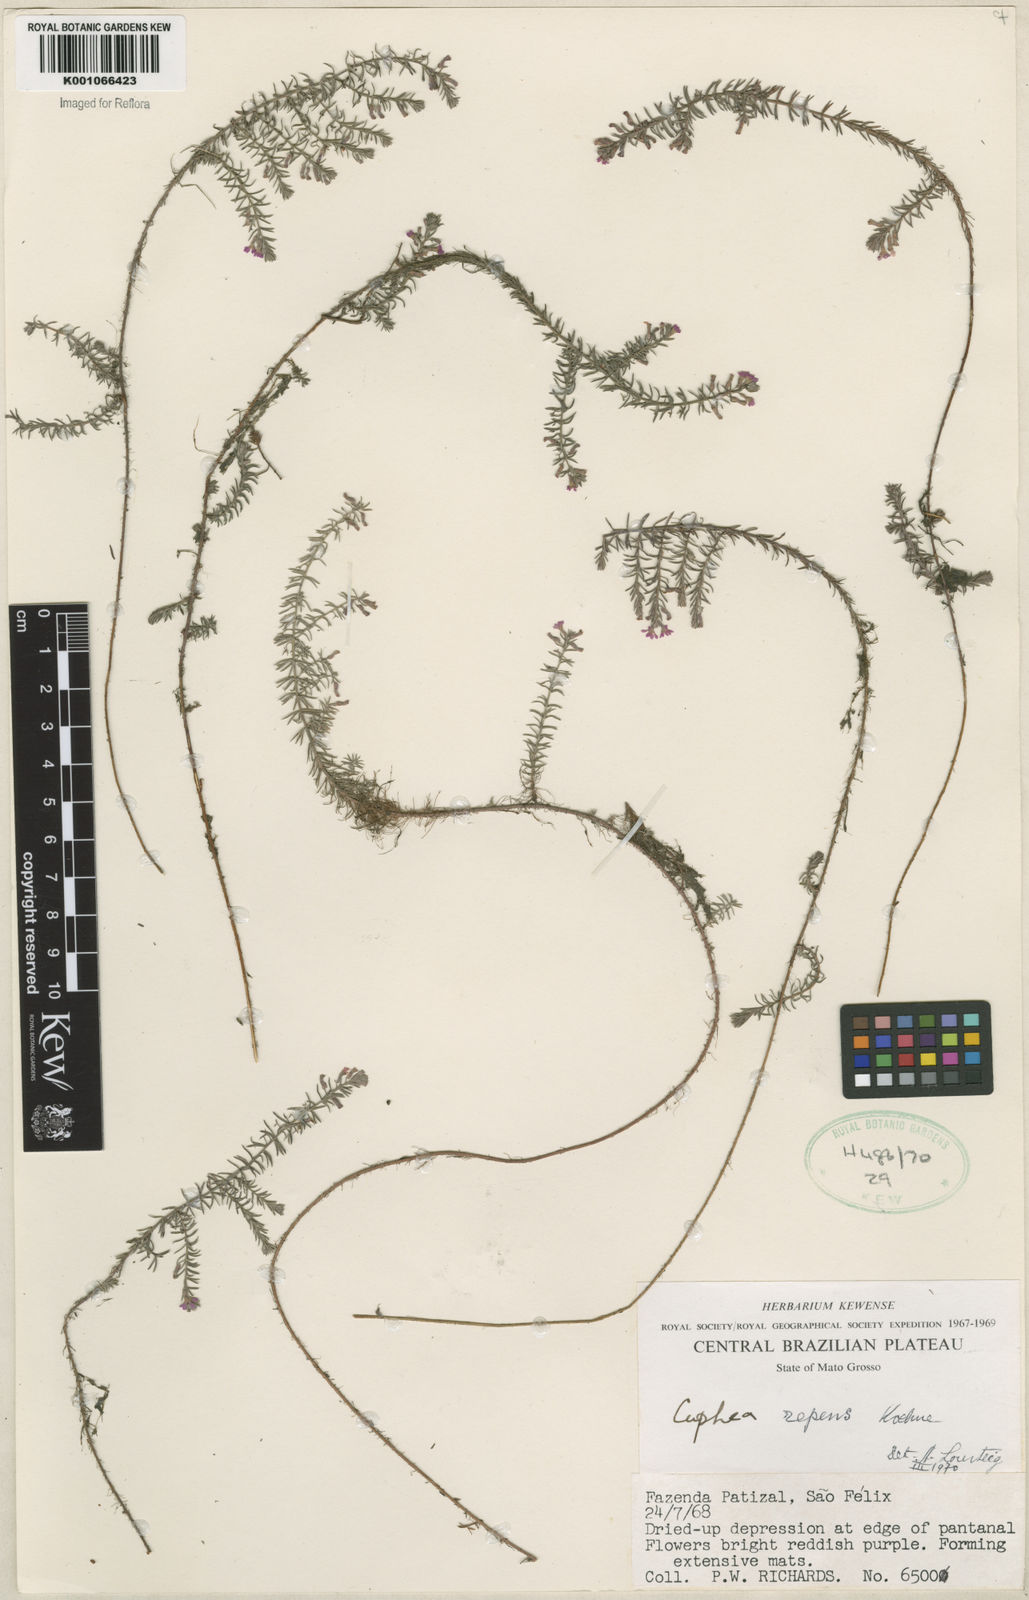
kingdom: Plantae
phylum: Tracheophyta
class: Magnoliopsida
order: Myrtales
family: Lythraceae
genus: Cuphea
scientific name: Cuphea repens
